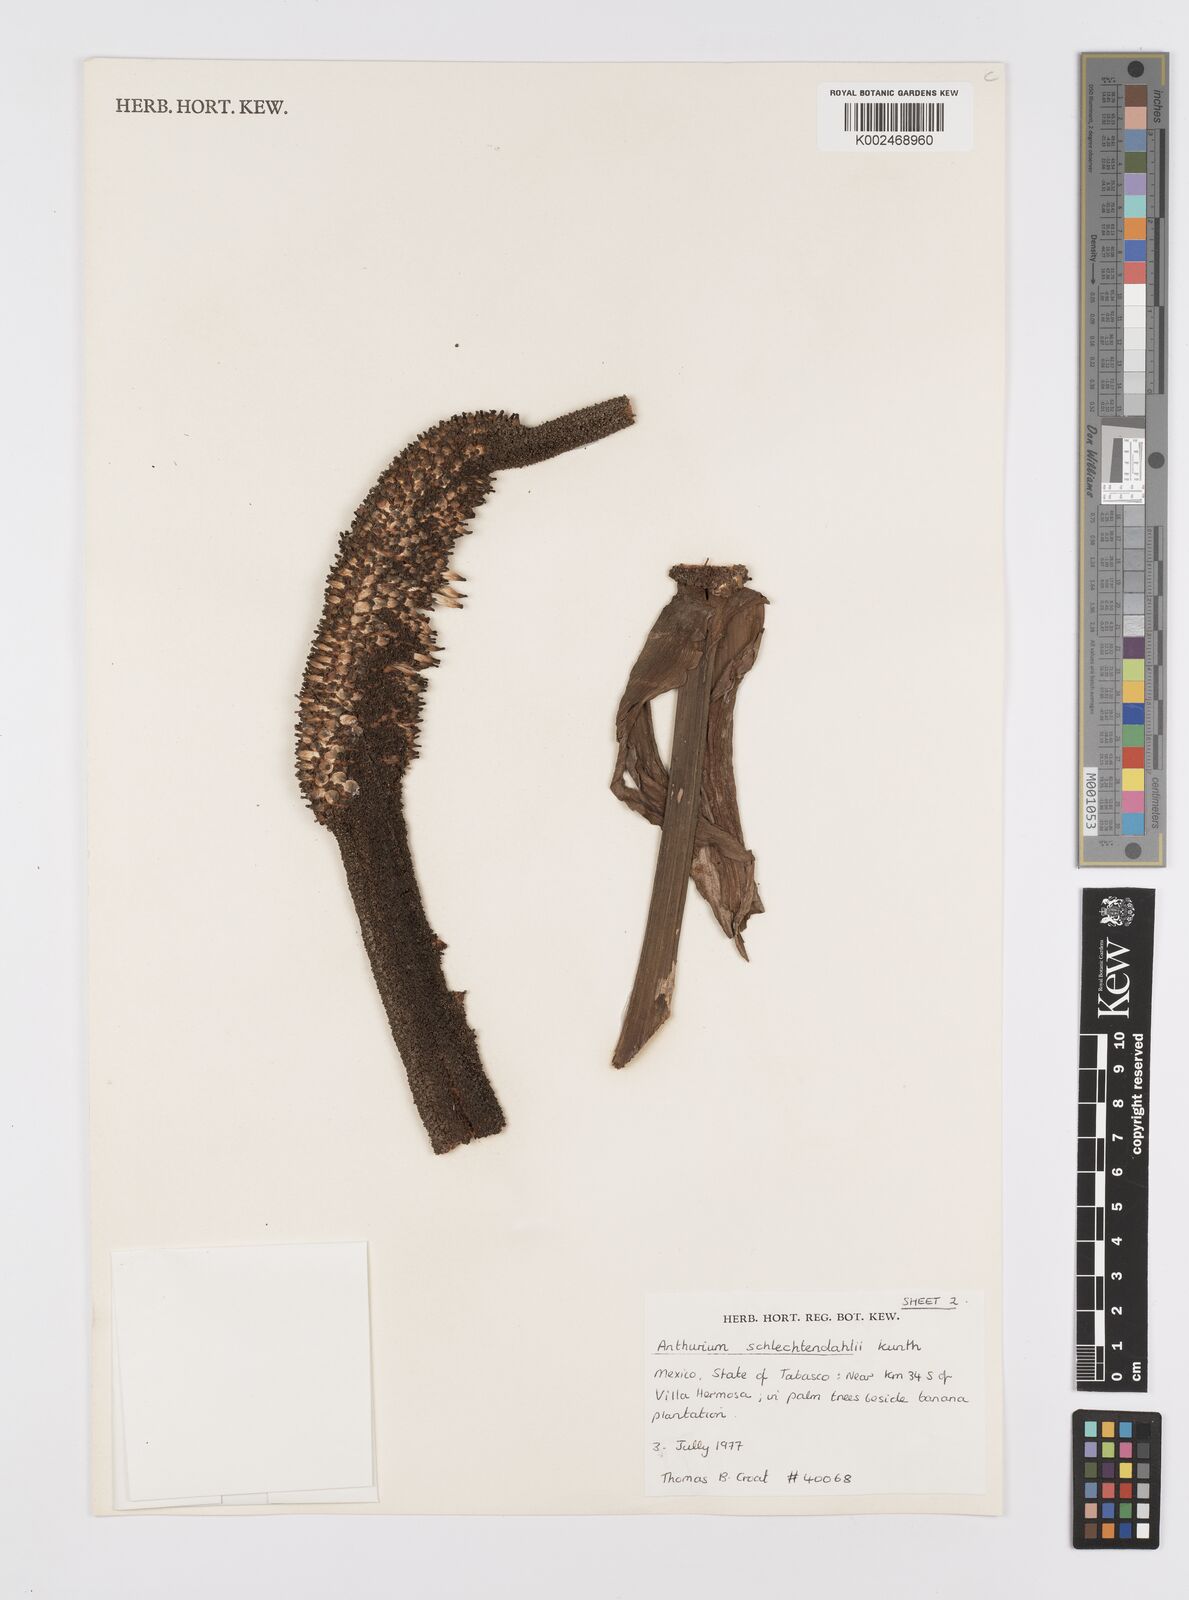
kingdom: Plantae
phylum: Tracheophyta
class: Liliopsida
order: Alismatales
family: Araceae
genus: Anthurium
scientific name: Anthurium schlechtendalii
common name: Laceleaf
